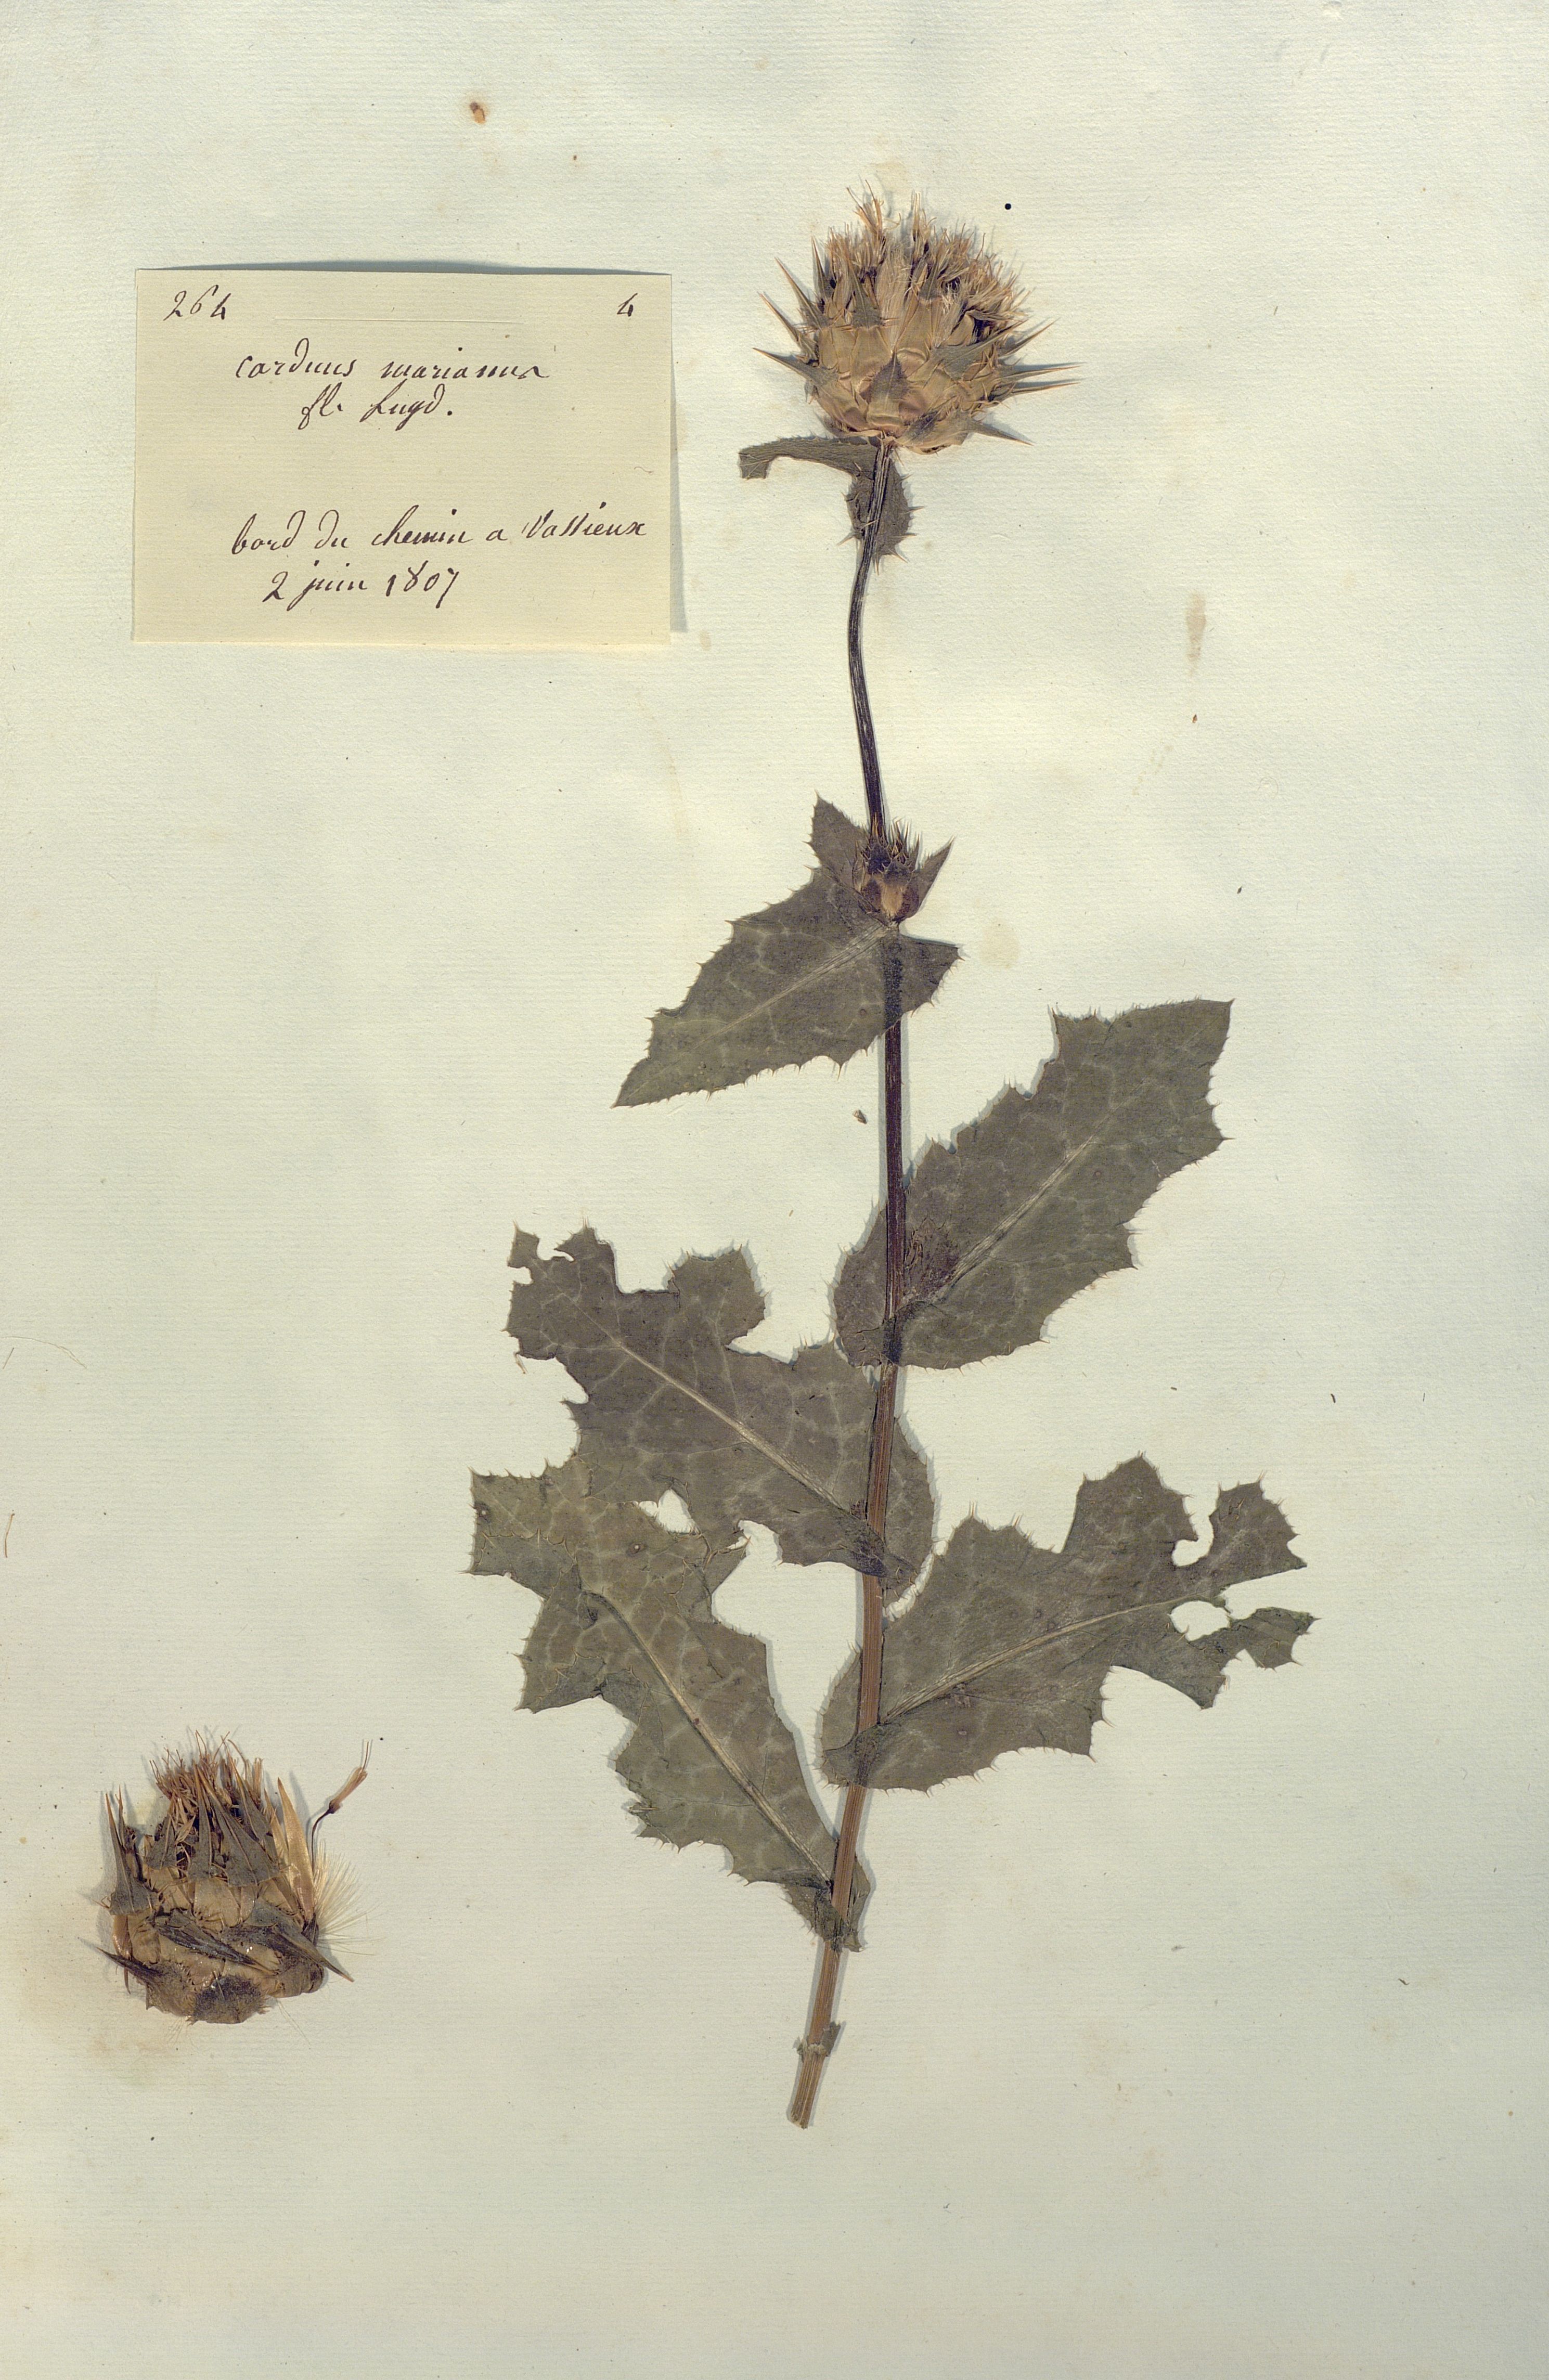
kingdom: Plantae
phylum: Tracheophyta
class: Magnoliopsida
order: Asterales
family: Asteraceae
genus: Silybum
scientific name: Silybum marianum
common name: Milk thistle
